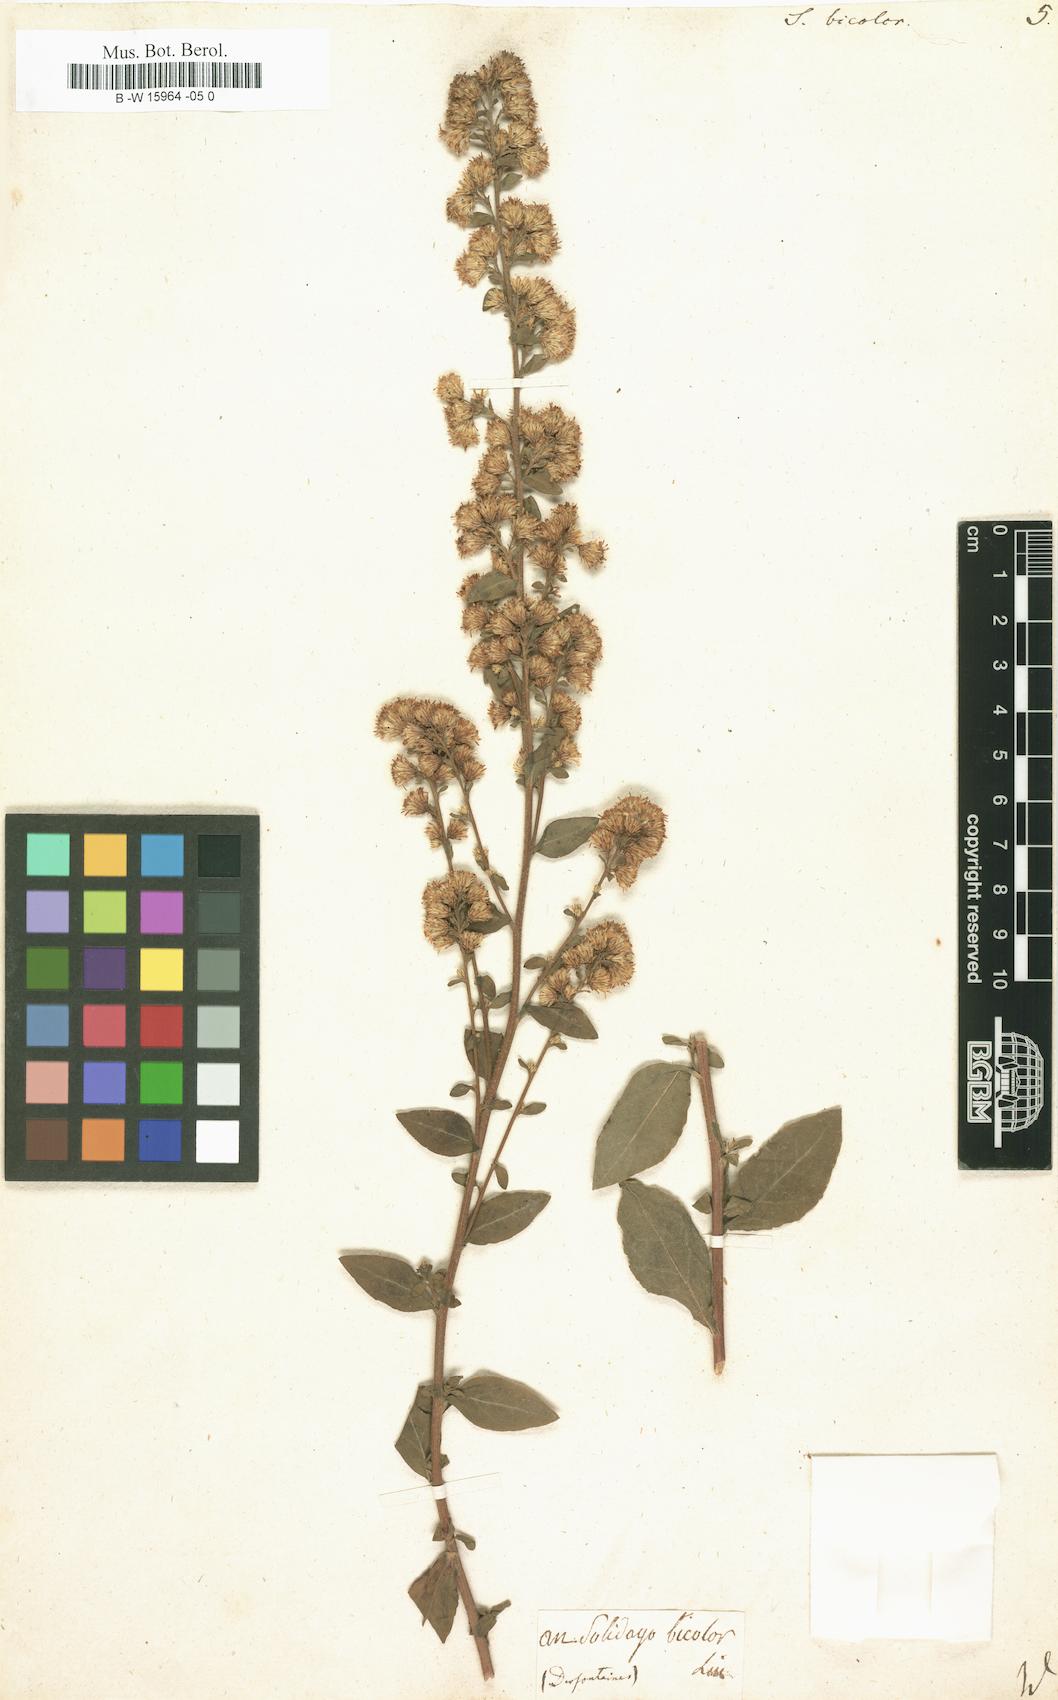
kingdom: Plantae
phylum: Tracheophyta
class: Magnoliopsida
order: Asterales
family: Asteraceae
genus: Solidago
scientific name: Solidago bicolor
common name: Silverrod
